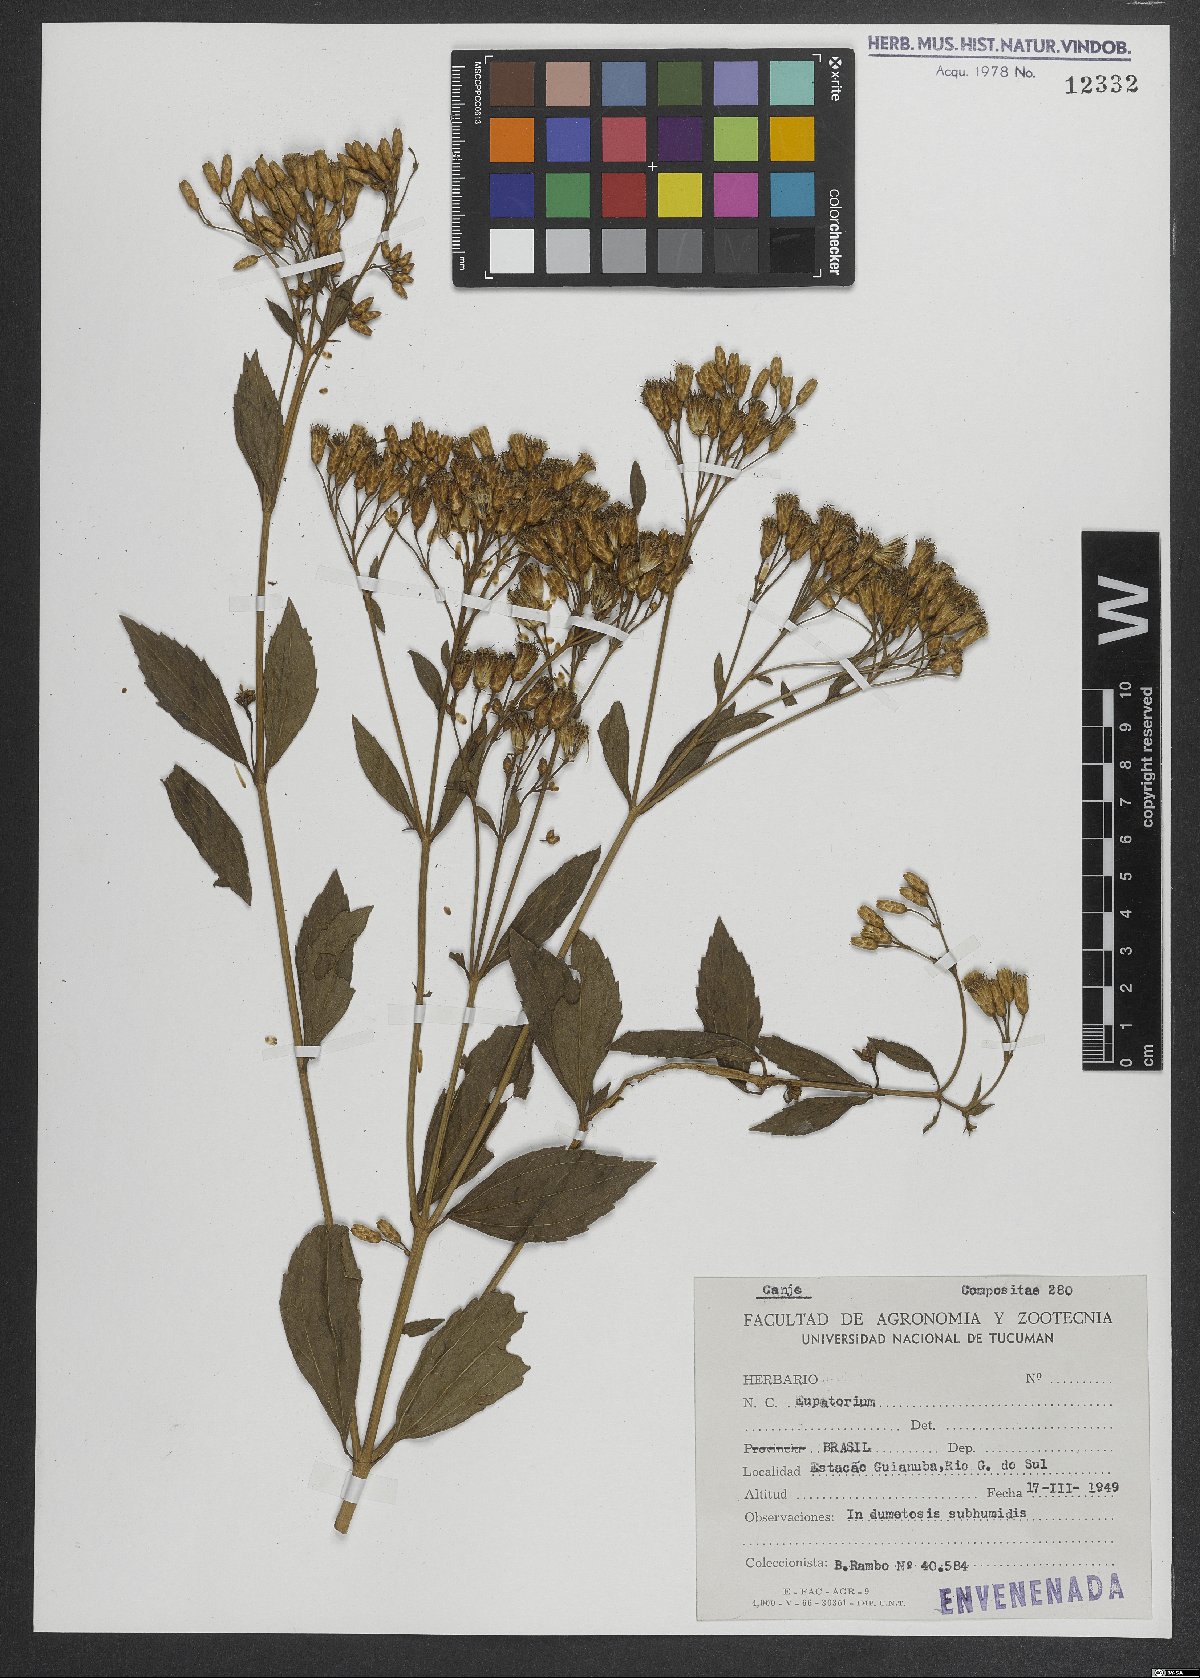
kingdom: Plantae
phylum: Tracheophyta
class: Magnoliopsida
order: Asterales
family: Asteraceae
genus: Eupatorium
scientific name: Eupatorium
